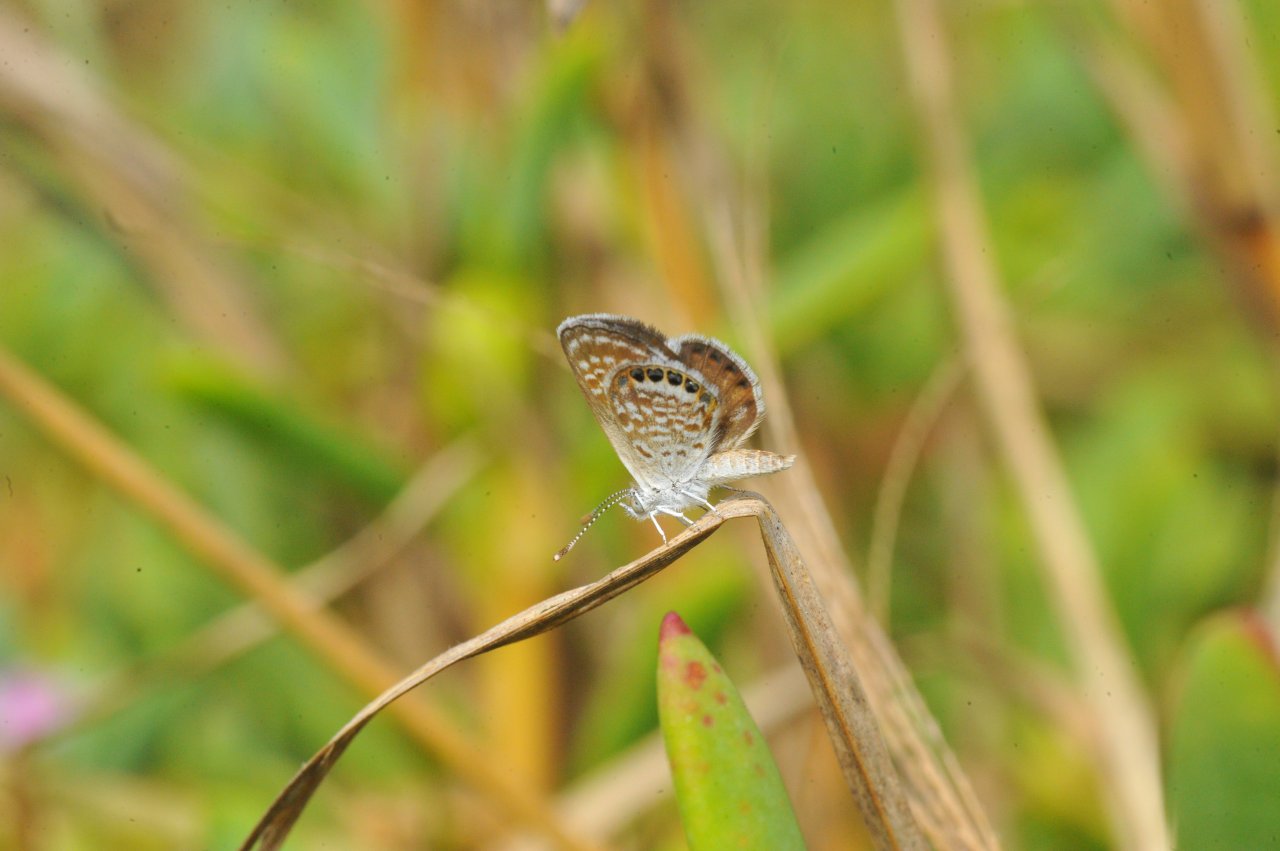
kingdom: Animalia
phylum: Arthropoda
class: Insecta
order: Lepidoptera
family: Lycaenidae
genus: Brephidium
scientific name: Brephidium exilis
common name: Western Pygmy-Blue
